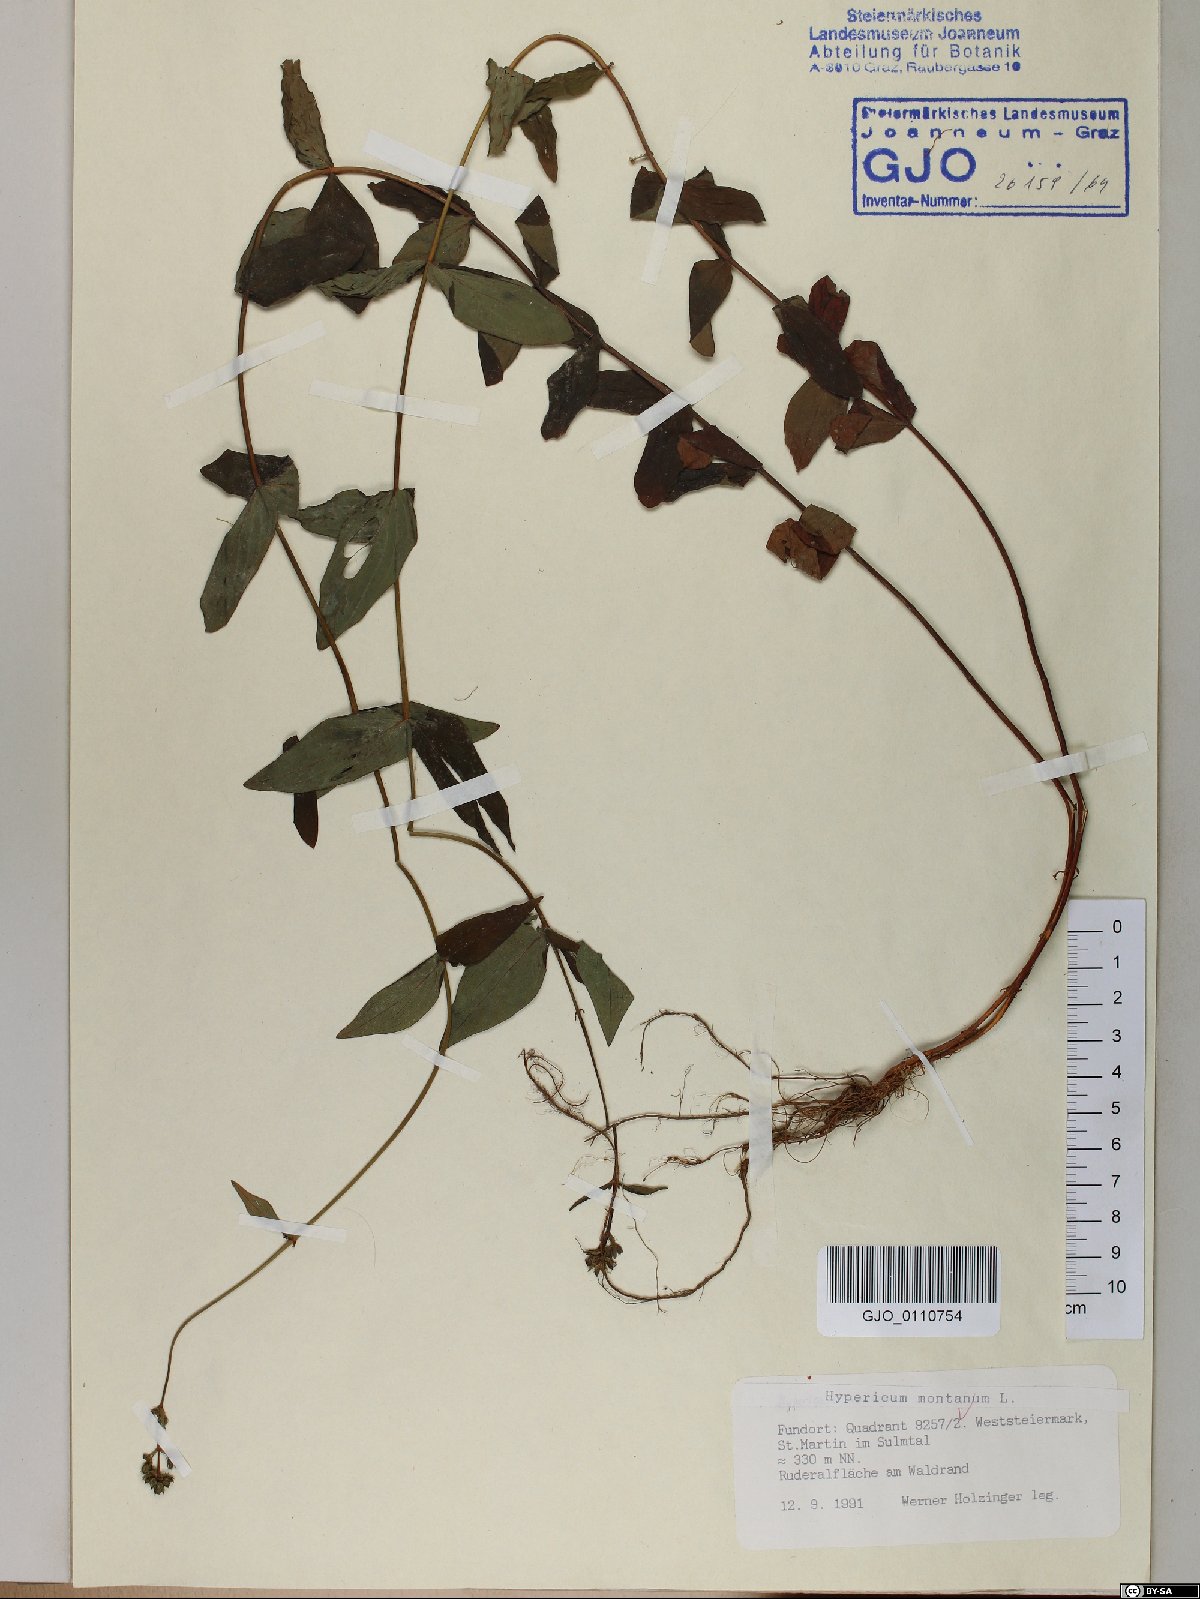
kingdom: Plantae
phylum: Tracheophyta
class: Magnoliopsida
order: Malpighiales
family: Hypericaceae
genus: Hypericum
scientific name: Hypericum montanum
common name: Pale st. john's-wort
